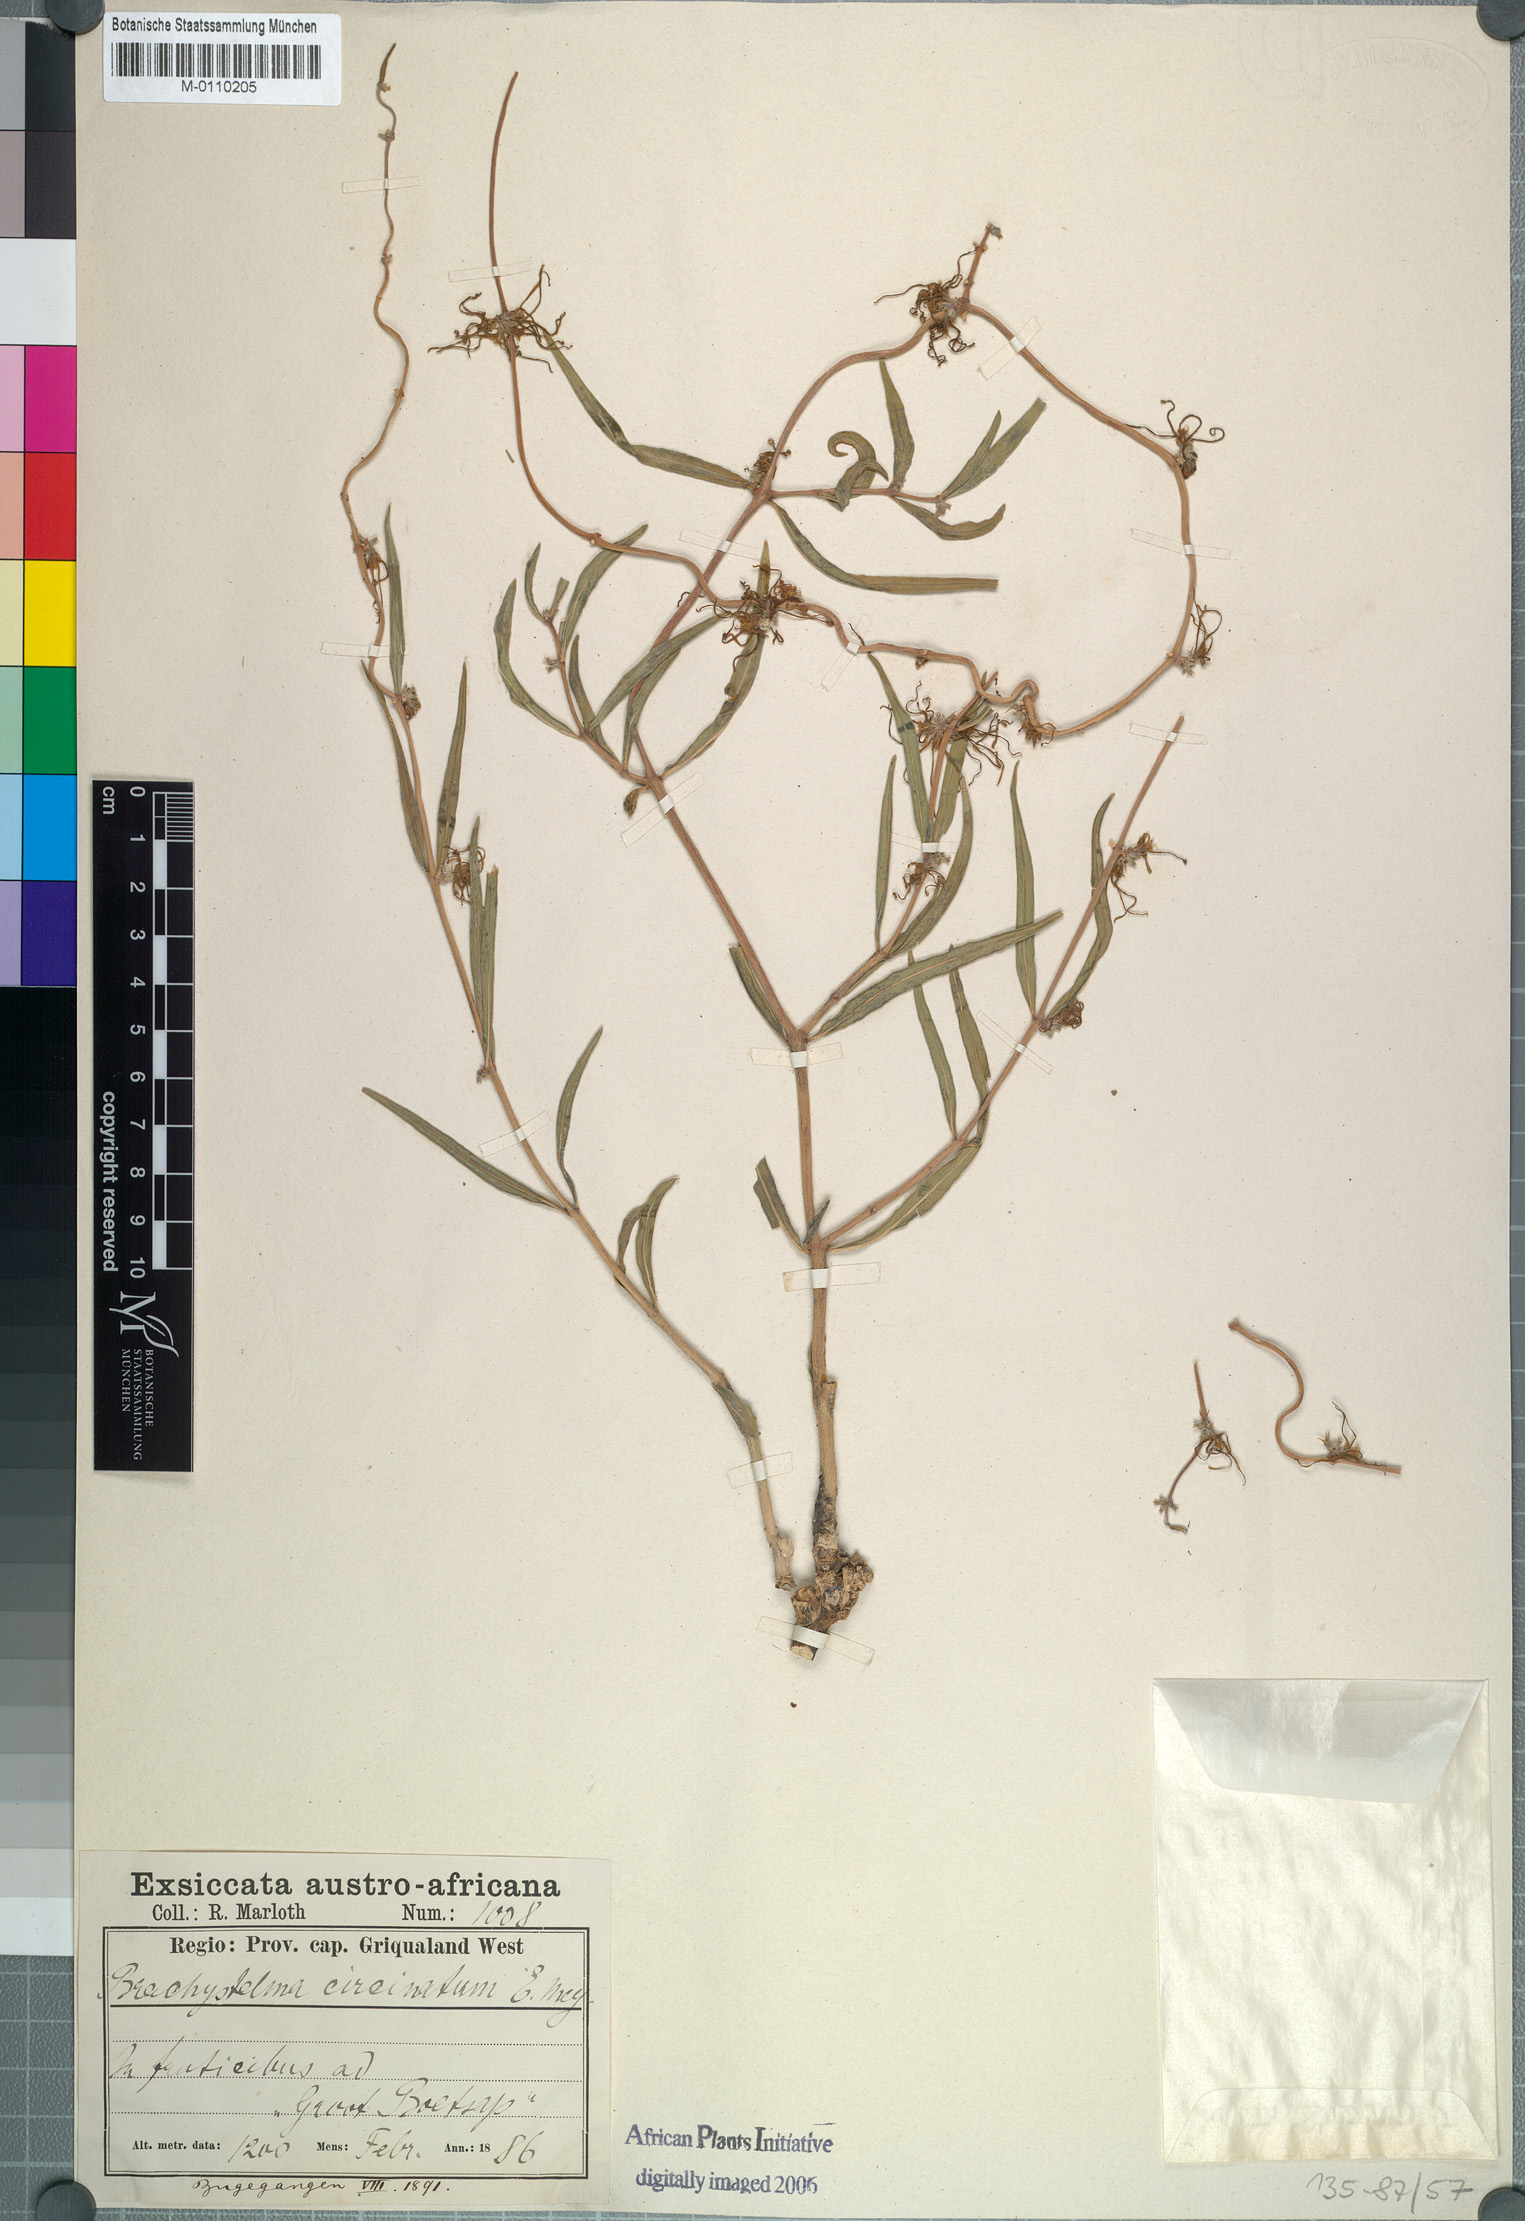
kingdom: Plantae
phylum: Tracheophyta
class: Magnoliopsida
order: Gentianales
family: Apocynaceae
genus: Fockea
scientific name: Fockea angustifolia
